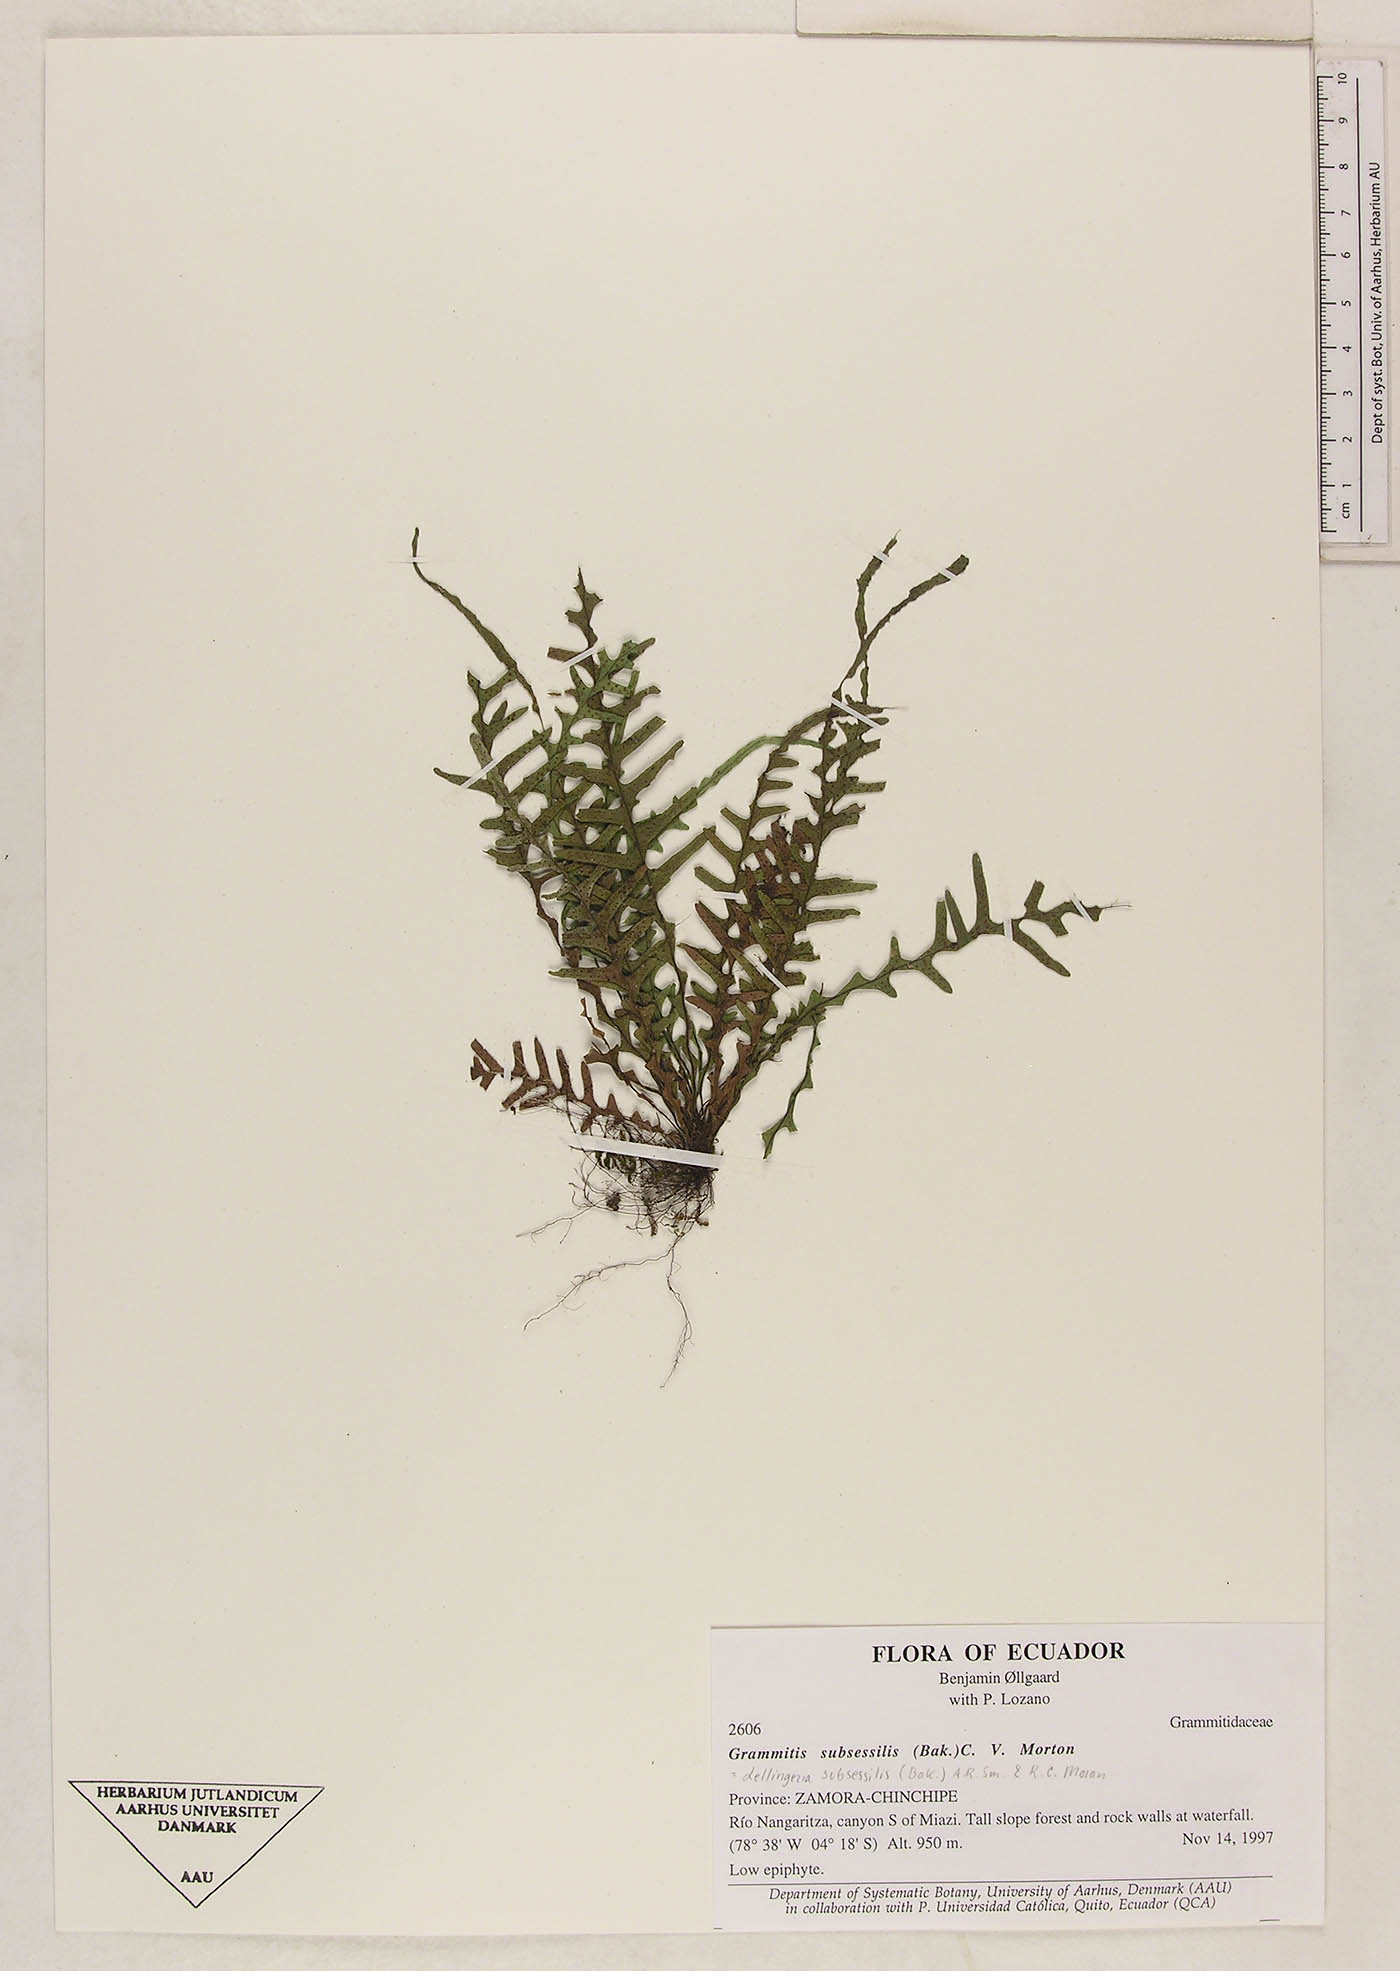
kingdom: Plantae
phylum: Tracheophyta
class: Polypodiopsida
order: Polypodiales
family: Polypodiaceae
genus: Lellingeria
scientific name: Lellingeria subsessilis
